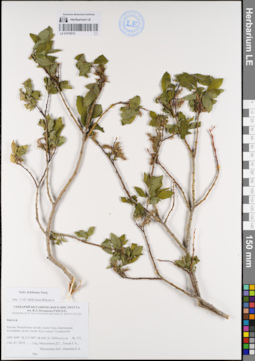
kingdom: Plantae
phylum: Tracheophyta
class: Magnoliopsida
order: Malpighiales
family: Salicaceae
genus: Salix
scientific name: Salix bebbiana
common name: Bebb's willow
